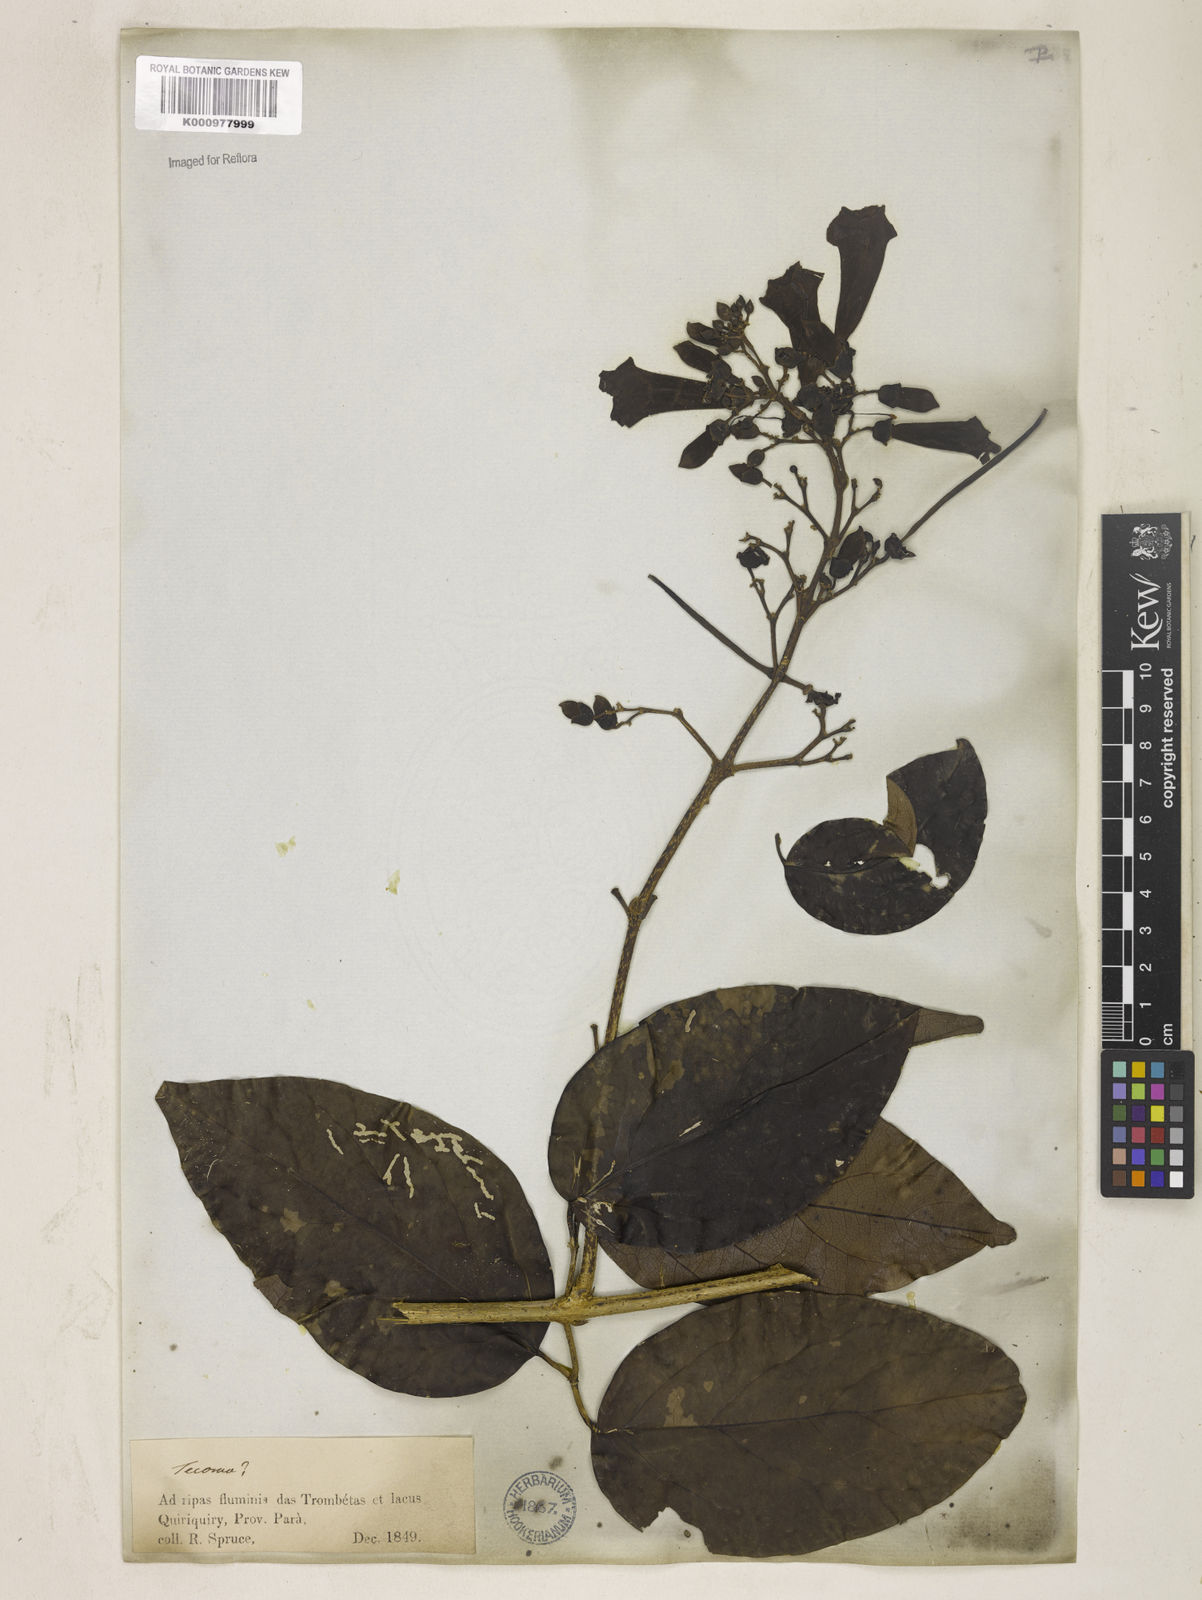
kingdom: Plantae
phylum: Tracheophyta
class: Magnoliopsida
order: Lamiales
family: Bignoniaceae
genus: Tanaecium
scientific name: Tanaecium pyramidatum
